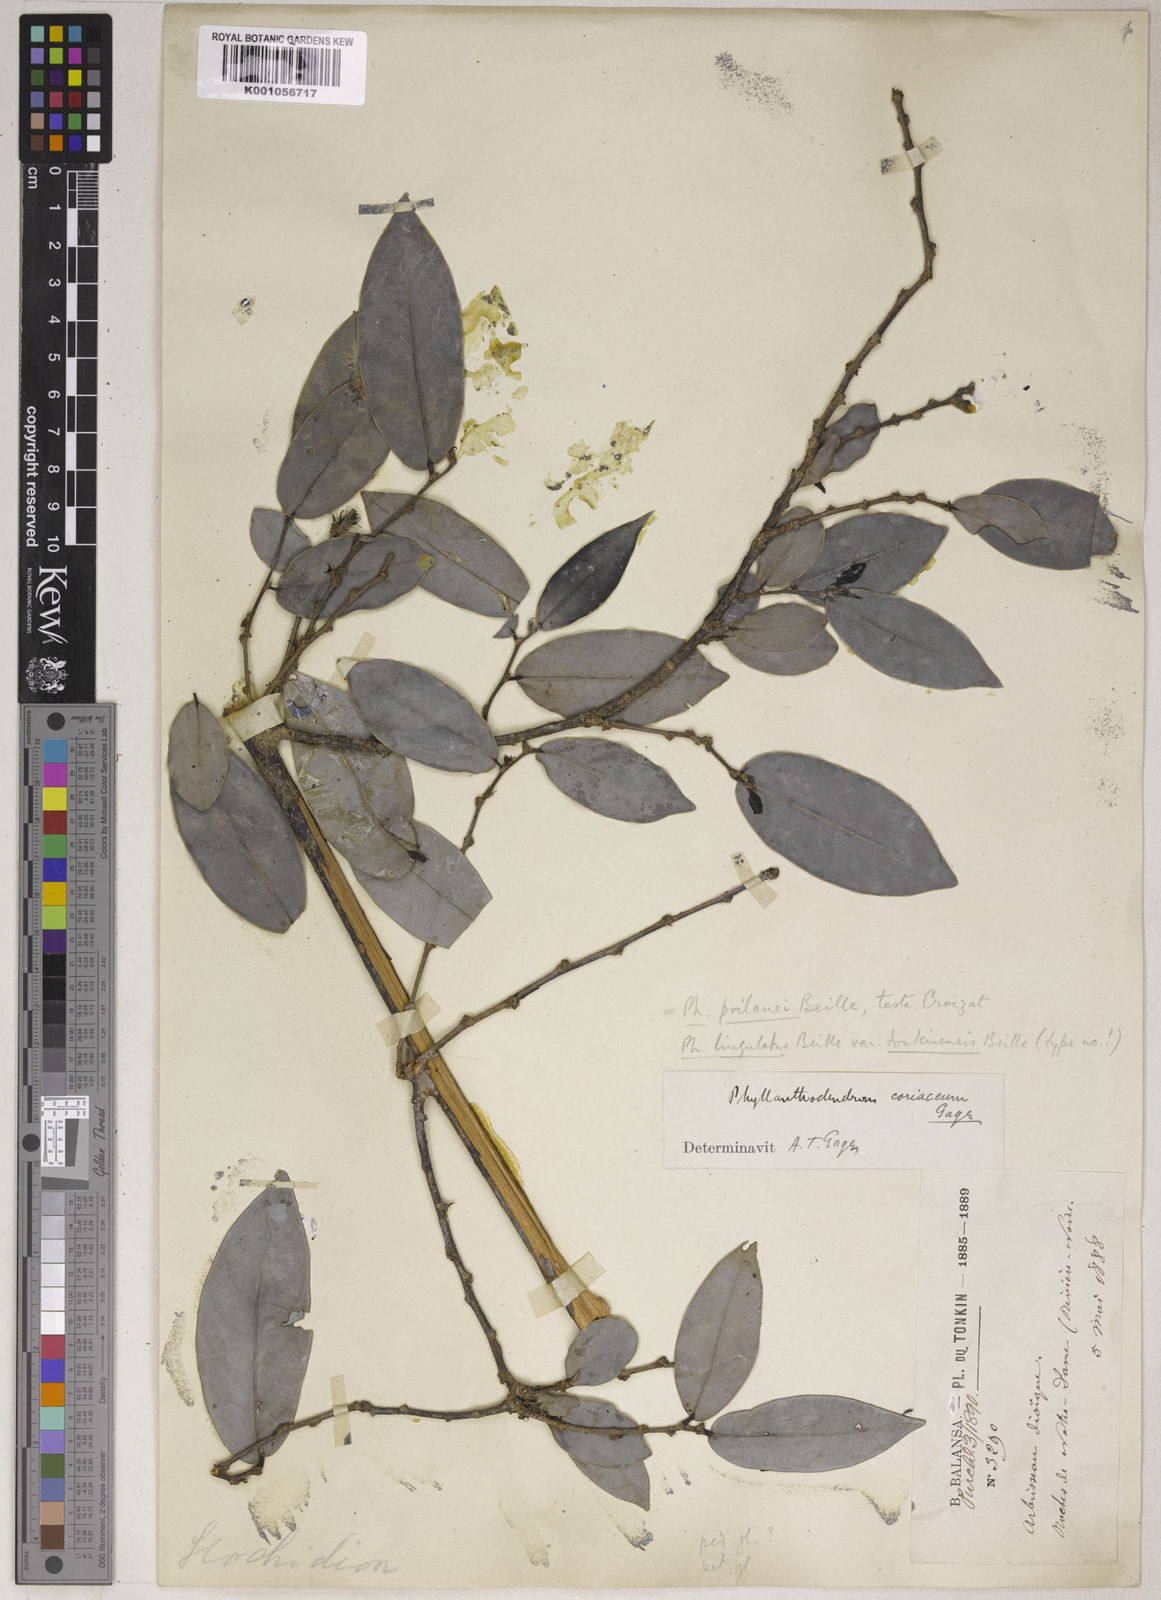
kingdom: Plantae
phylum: Tracheophyta
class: Magnoliopsida
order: Malpighiales
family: Phyllanthaceae
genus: Phyllanthus
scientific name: Phyllanthus poilanei
